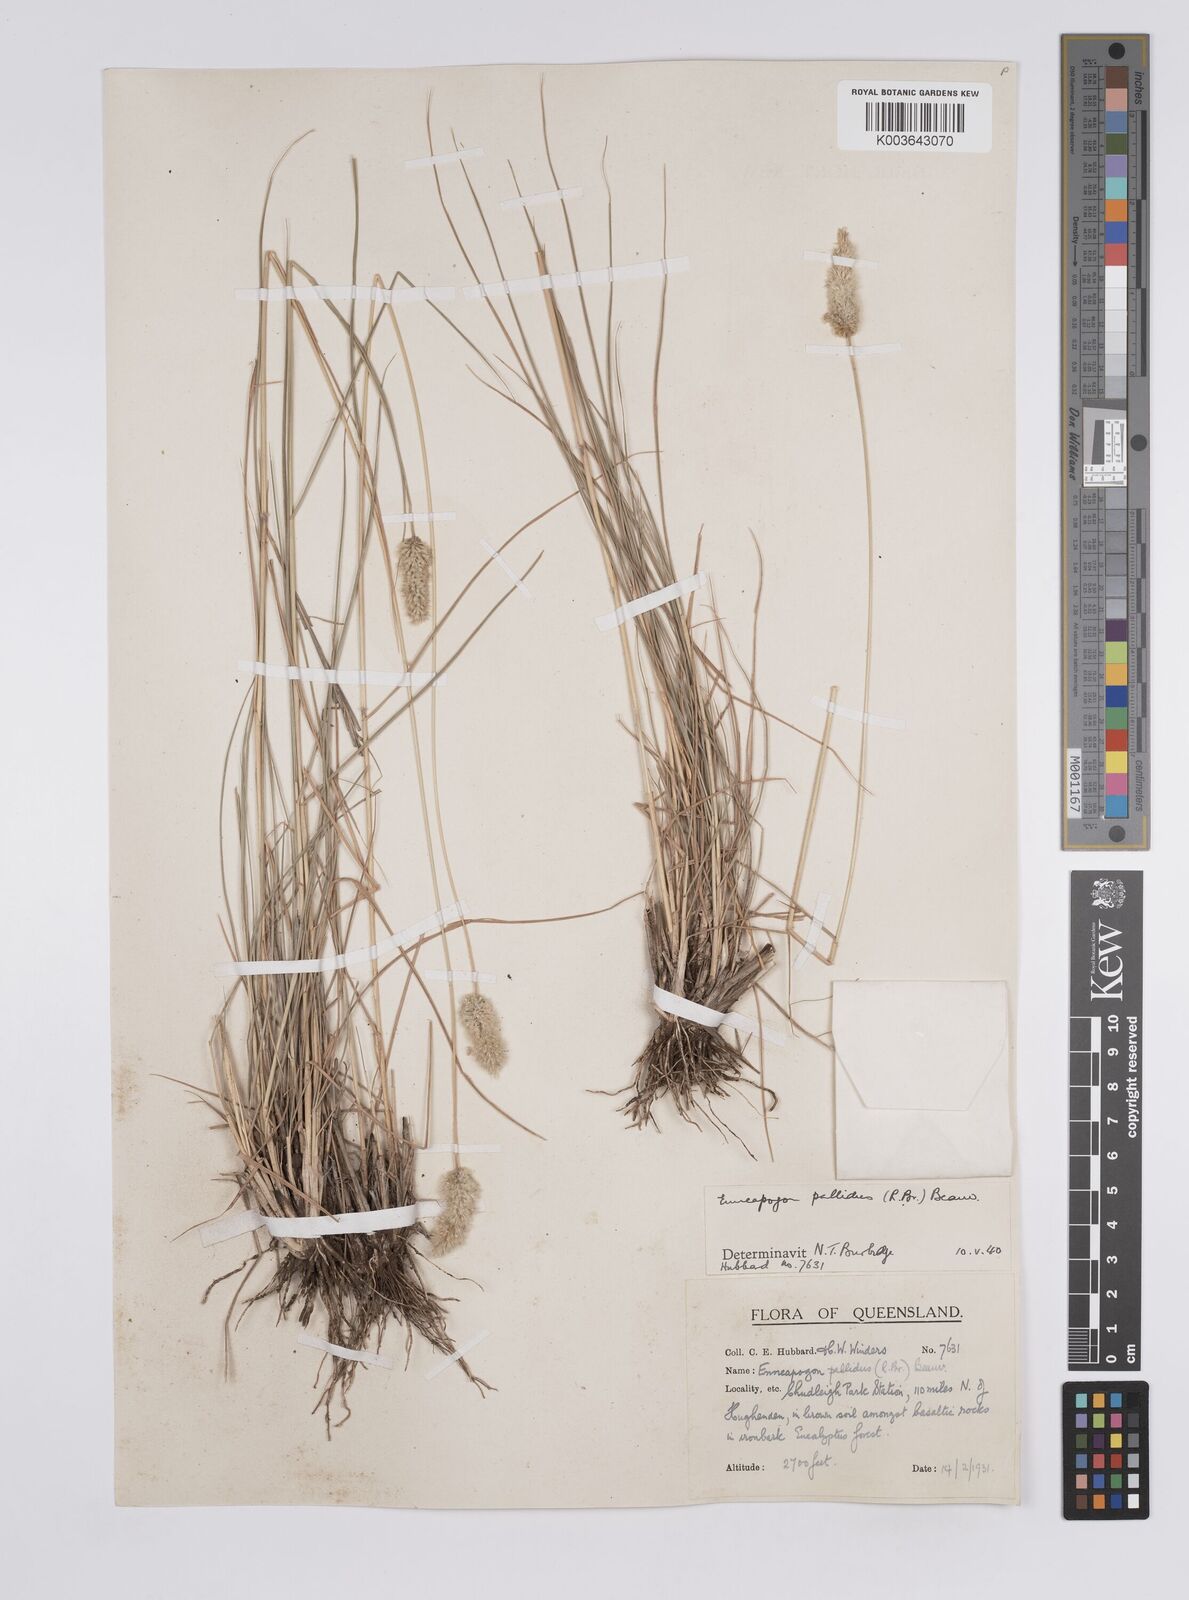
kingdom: Plantae
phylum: Tracheophyta
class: Liliopsida
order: Poales
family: Poaceae
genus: Enneapogon
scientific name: Enneapogon pallidus
